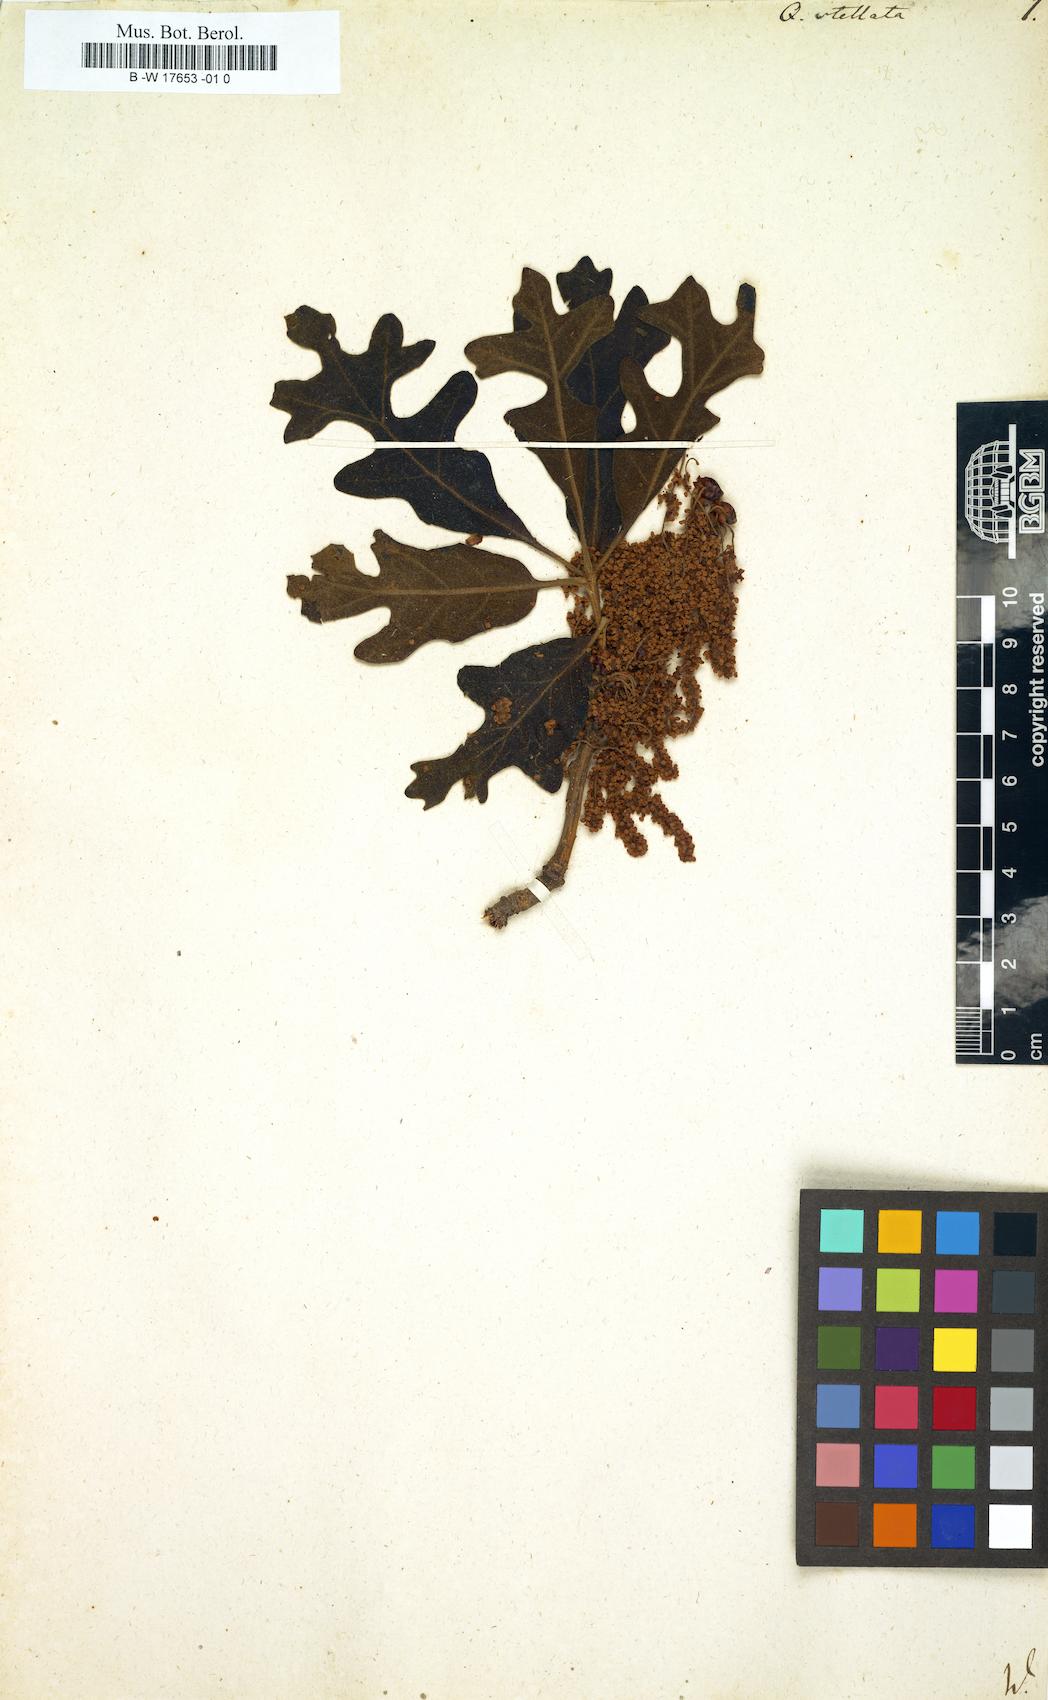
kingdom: Plantae
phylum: Tracheophyta
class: Magnoliopsida
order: Fagales
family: Fagaceae
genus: Quercus
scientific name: Quercus stellata
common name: Post oak
